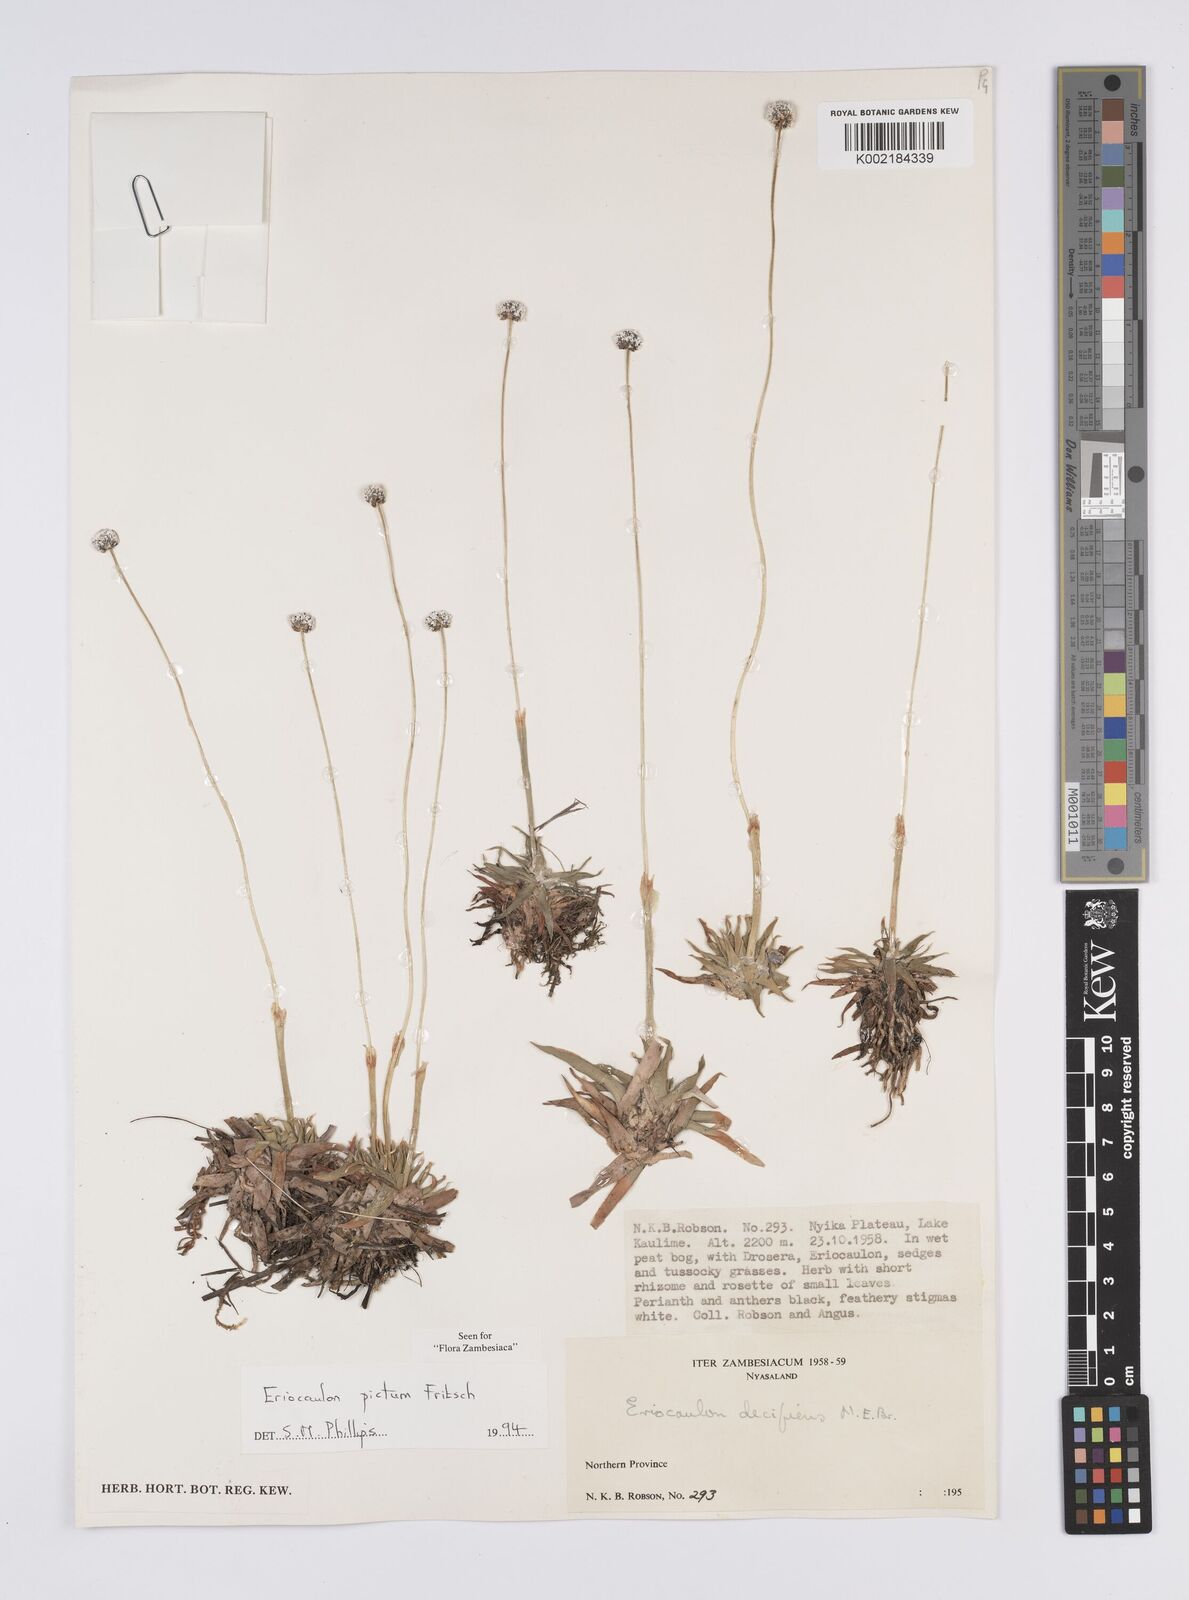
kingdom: Plantae
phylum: Tracheophyta
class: Liliopsida
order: Poales
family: Eriocaulaceae
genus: Eriocaulon
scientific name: Eriocaulon pictum
